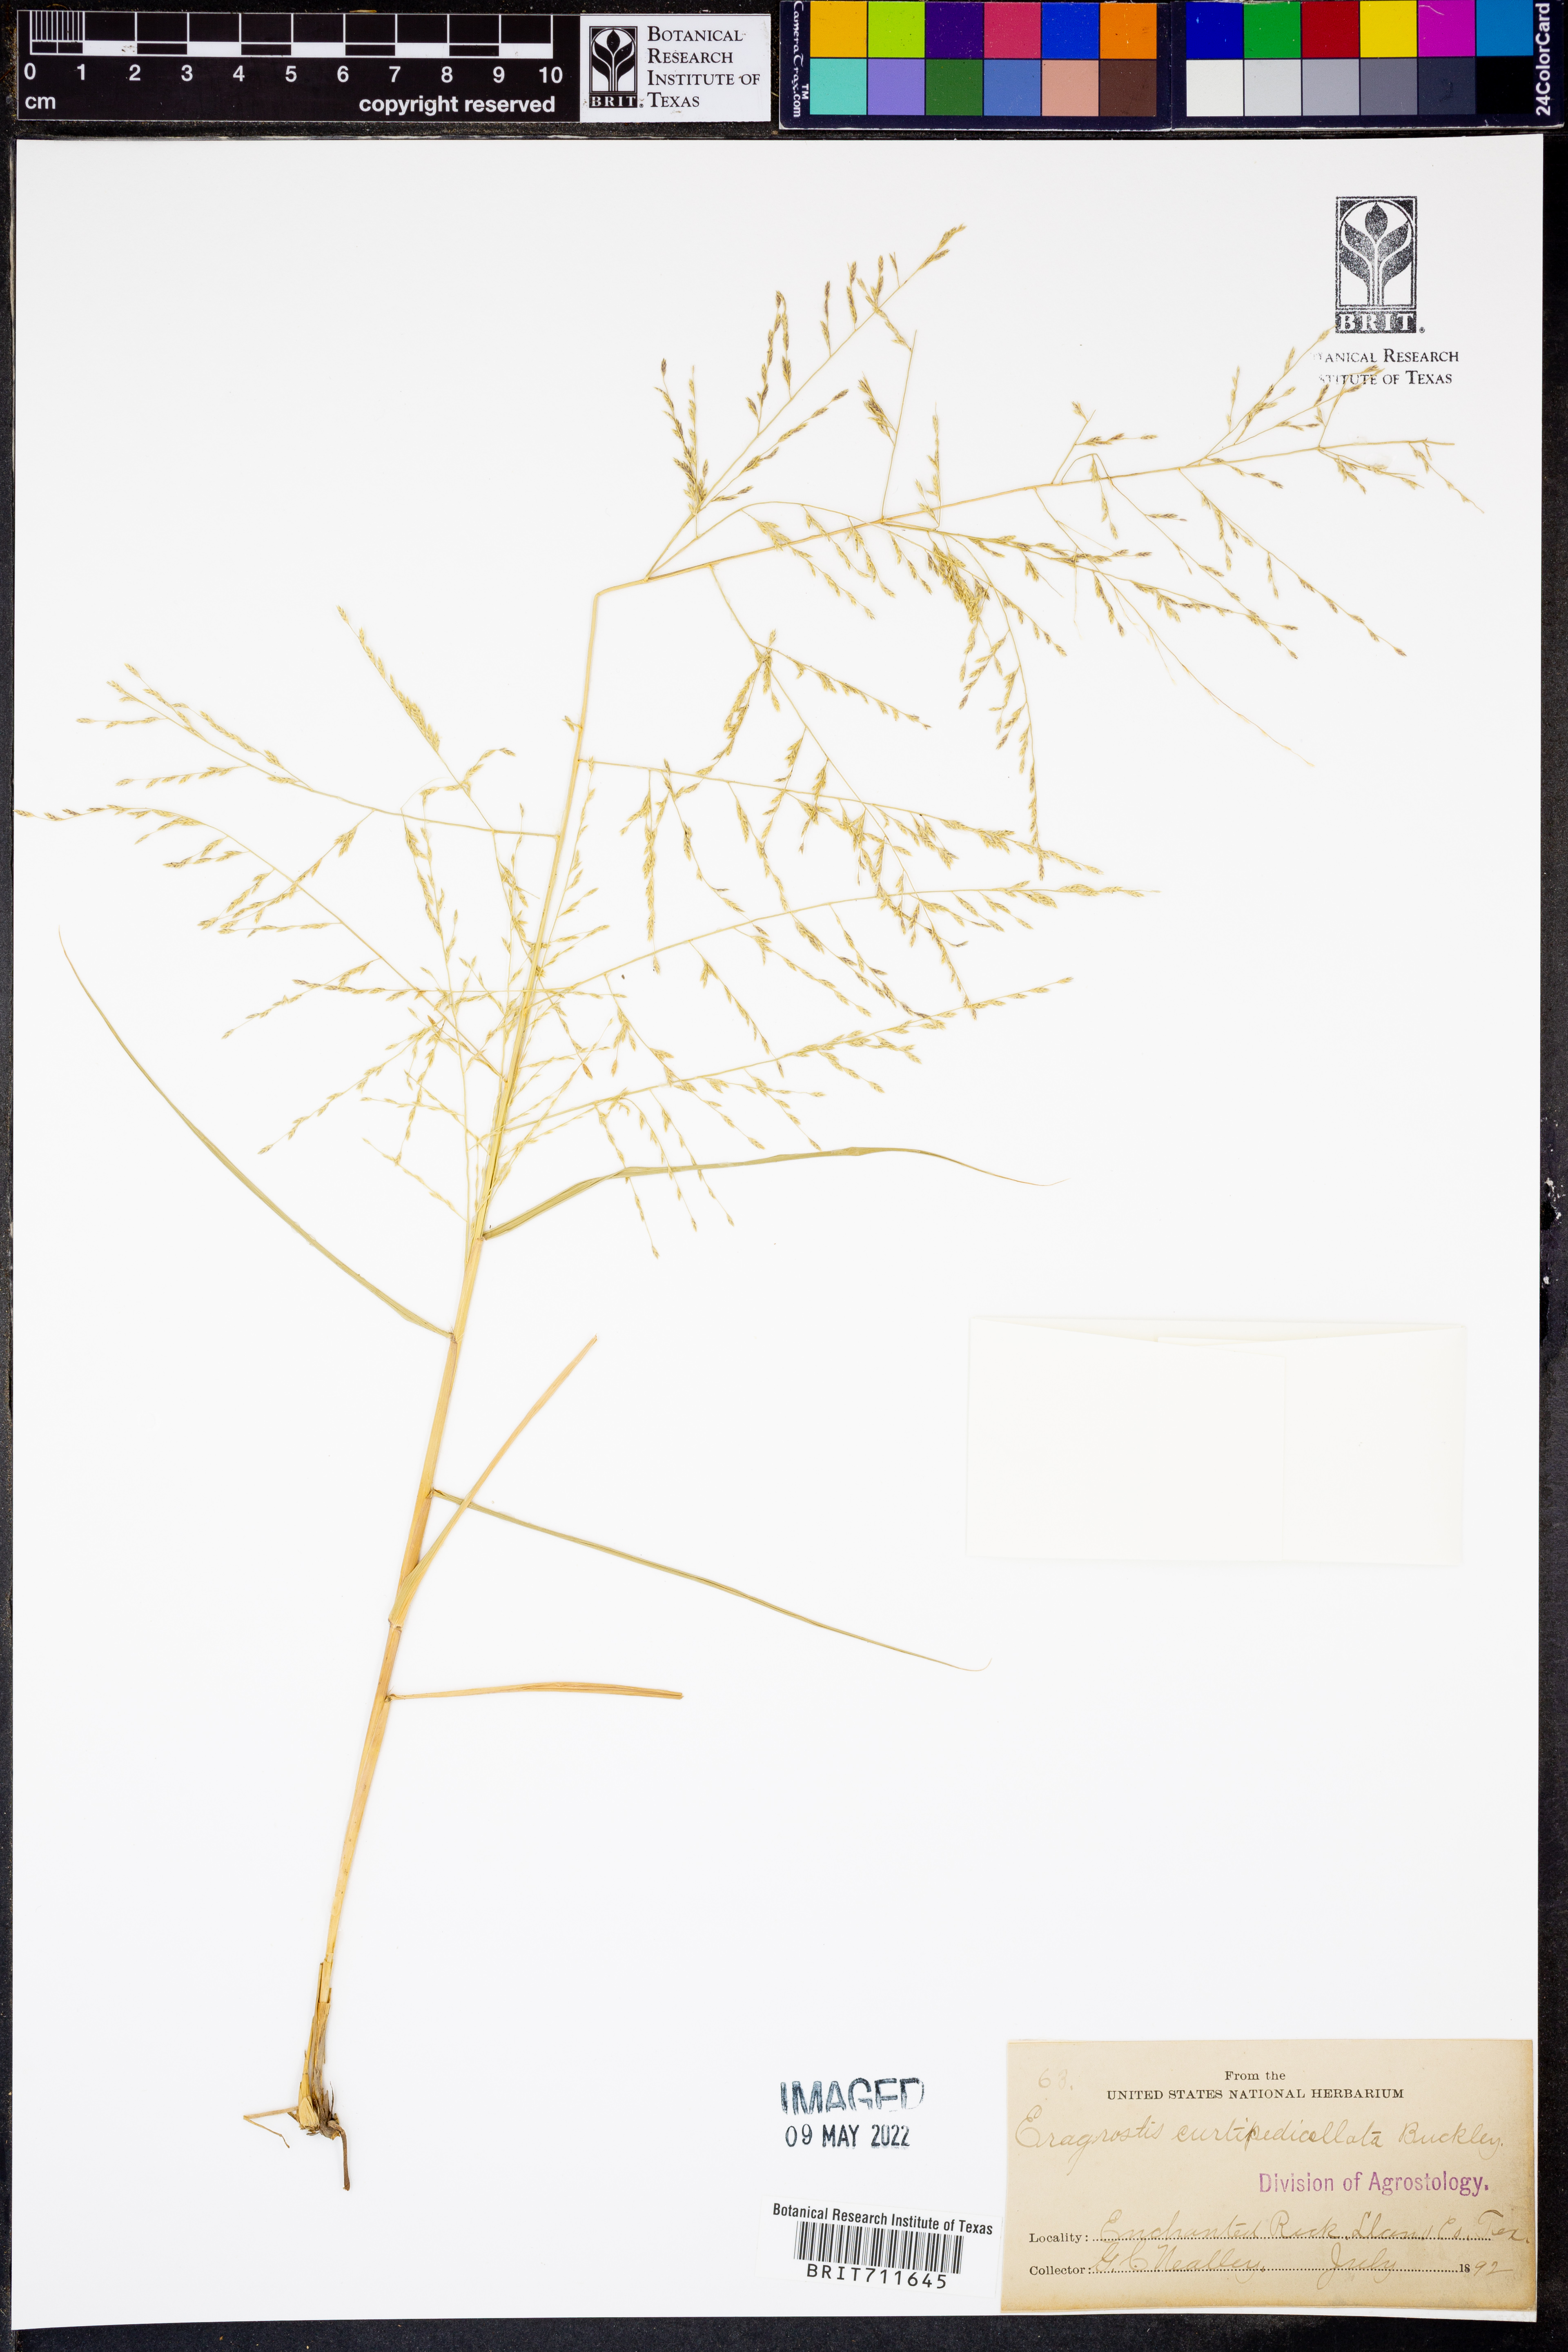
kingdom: Plantae
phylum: Tracheophyta
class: Liliopsida
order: Poales
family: Poaceae
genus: Eragrostis
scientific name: Eragrostis curtipedicellata
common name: Gummy love grass
